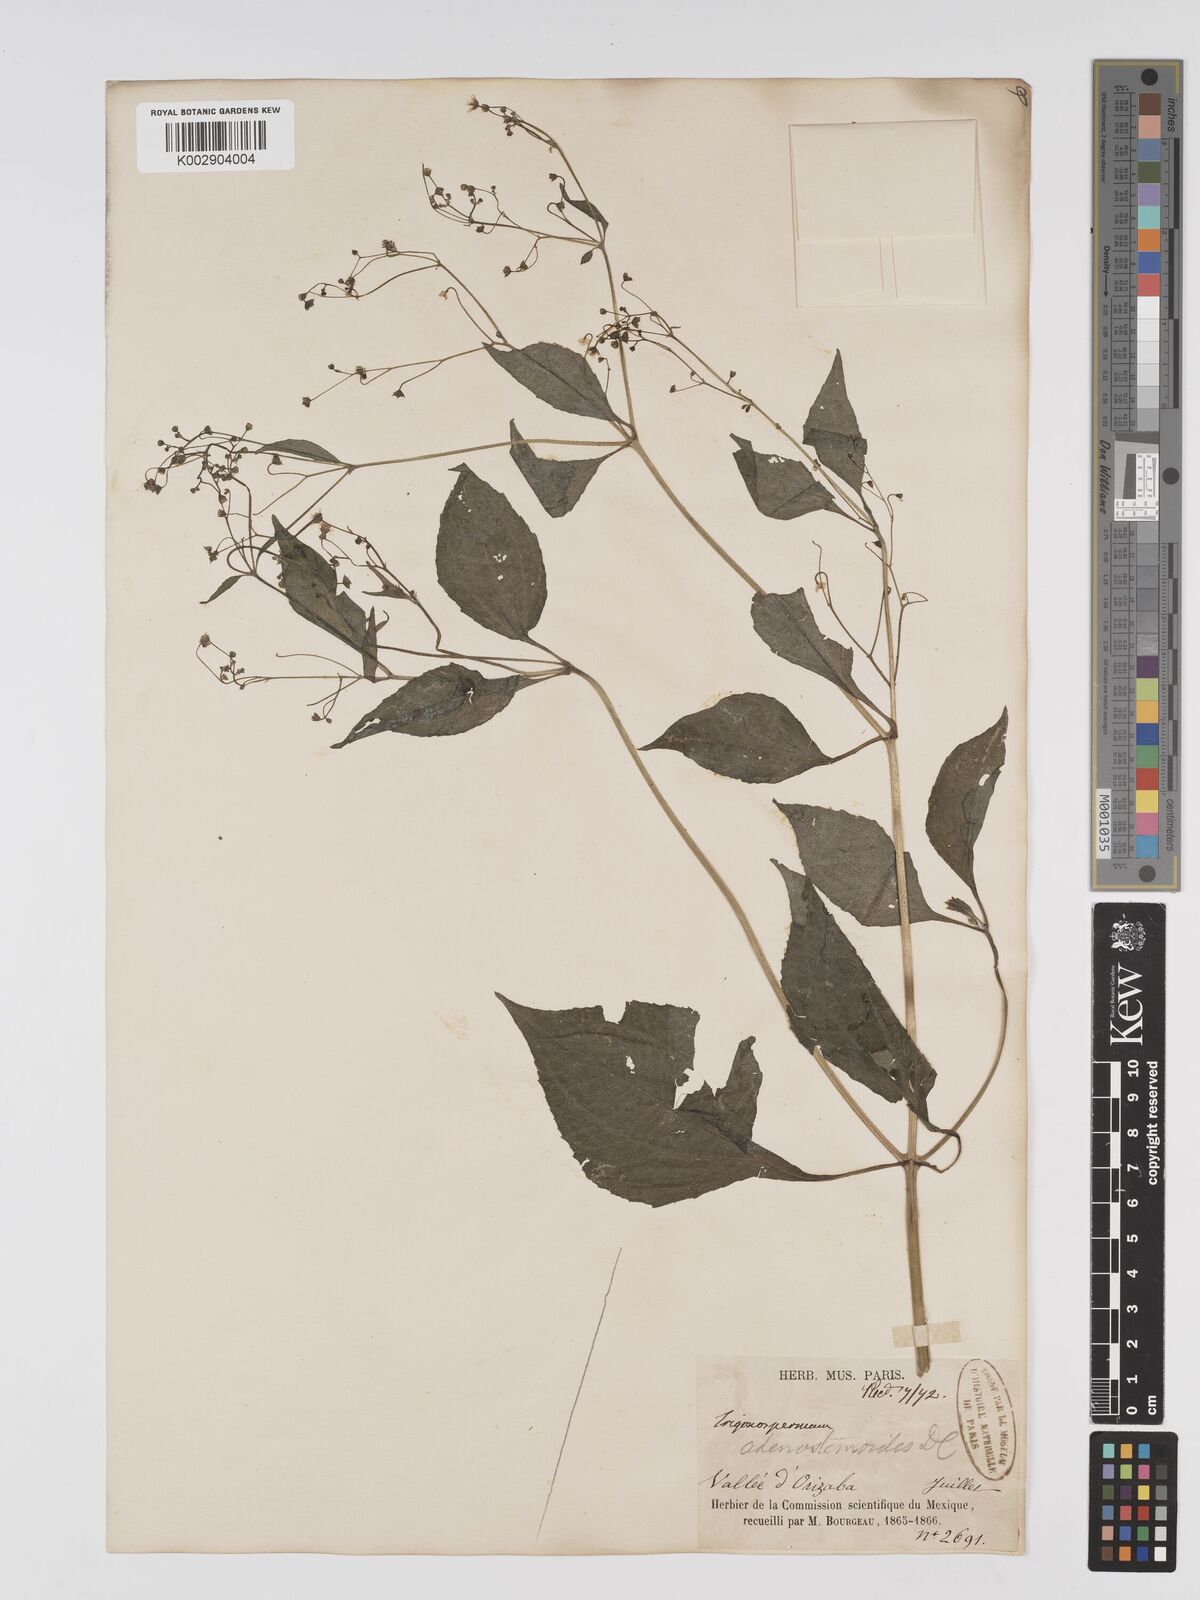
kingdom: Plantae
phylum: Tracheophyta
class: Magnoliopsida
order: Asterales
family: Asteraceae
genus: Trigonospermum
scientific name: Trigonospermum adenostemmoides
